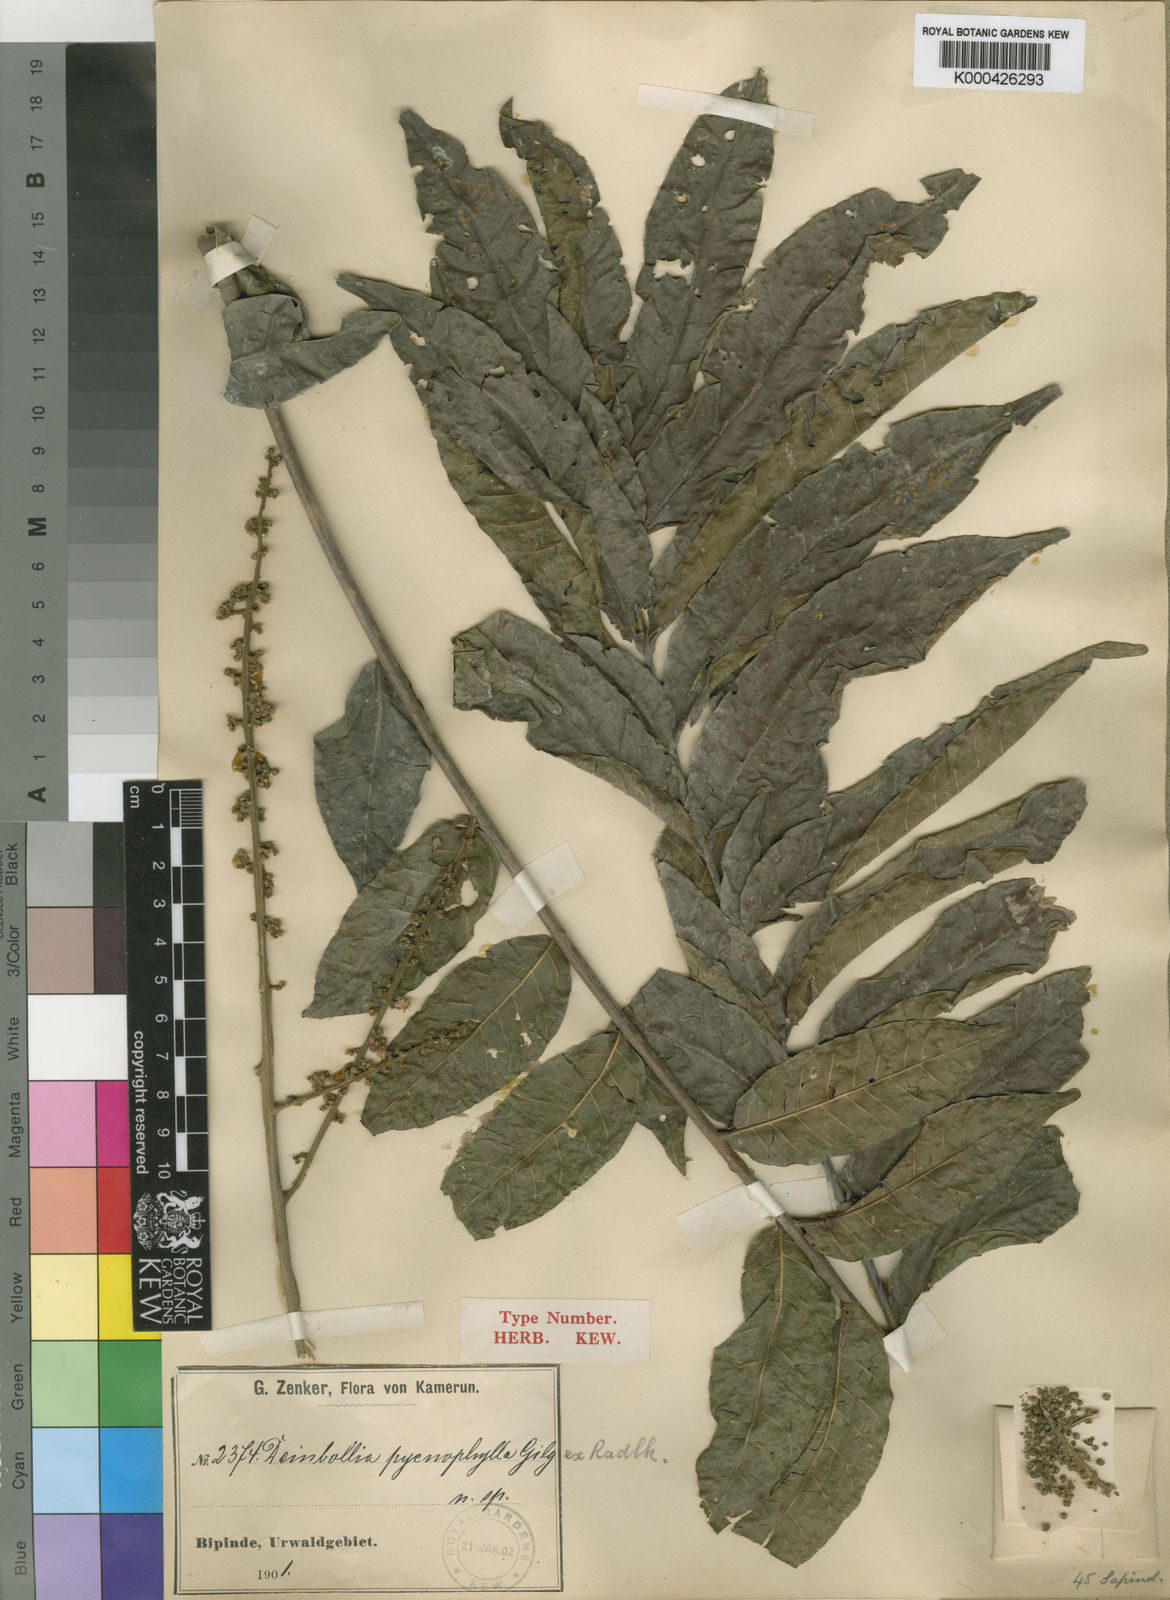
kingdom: Plantae
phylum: Tracheophyta
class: Magnoliopsida
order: Sapindales
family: Sapindaceae
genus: Deinbollia
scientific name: Deinbollia
